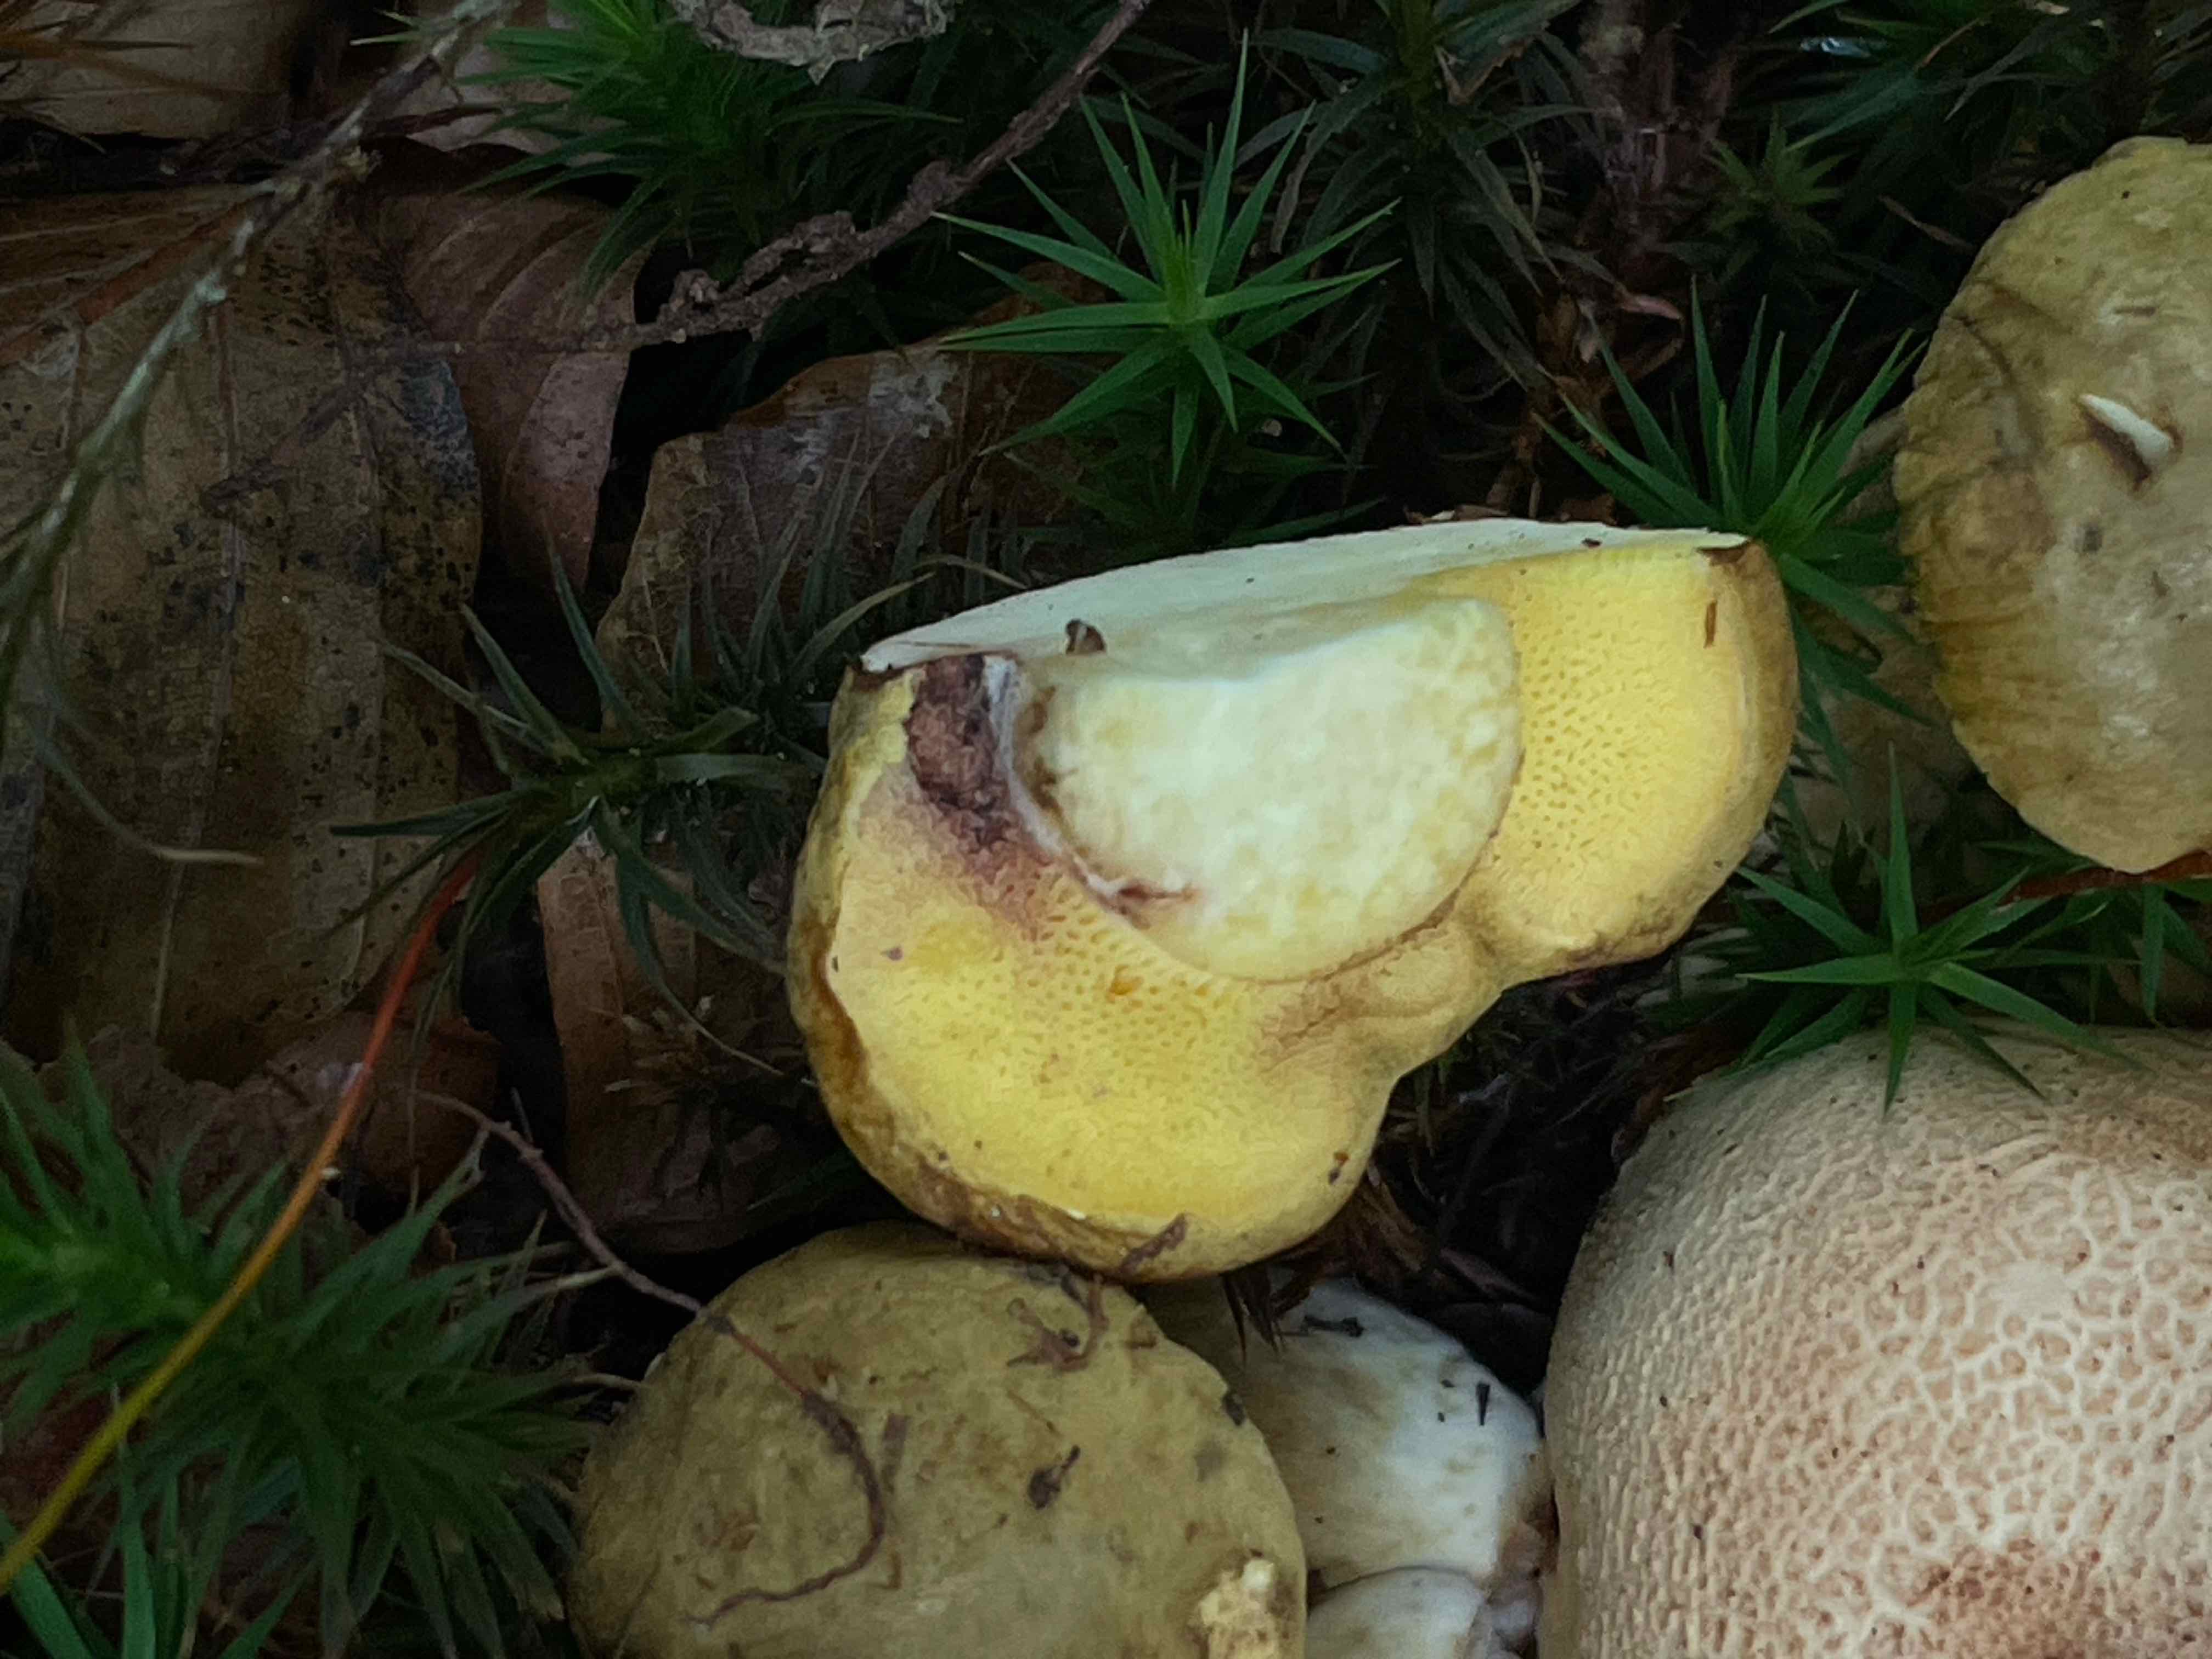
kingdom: Fungi
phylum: Basidiomycota
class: Agaricomycetes
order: Boletales
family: Boletaceae
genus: Pseudoboletus
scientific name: Pseudoboletus parasiticus
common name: snyltende rørhat
